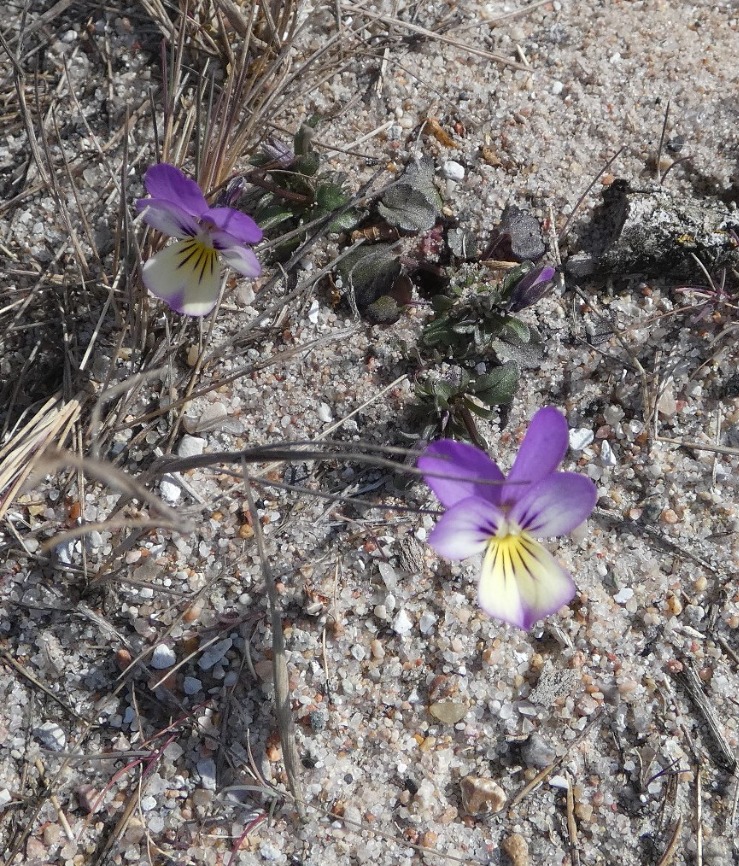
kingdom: Plantae
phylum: Tracheophyta
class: Magnoliopsida
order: Malpighiales
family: Violaceae
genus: Viola
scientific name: Viola tricolor
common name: Stedmoderblomst
